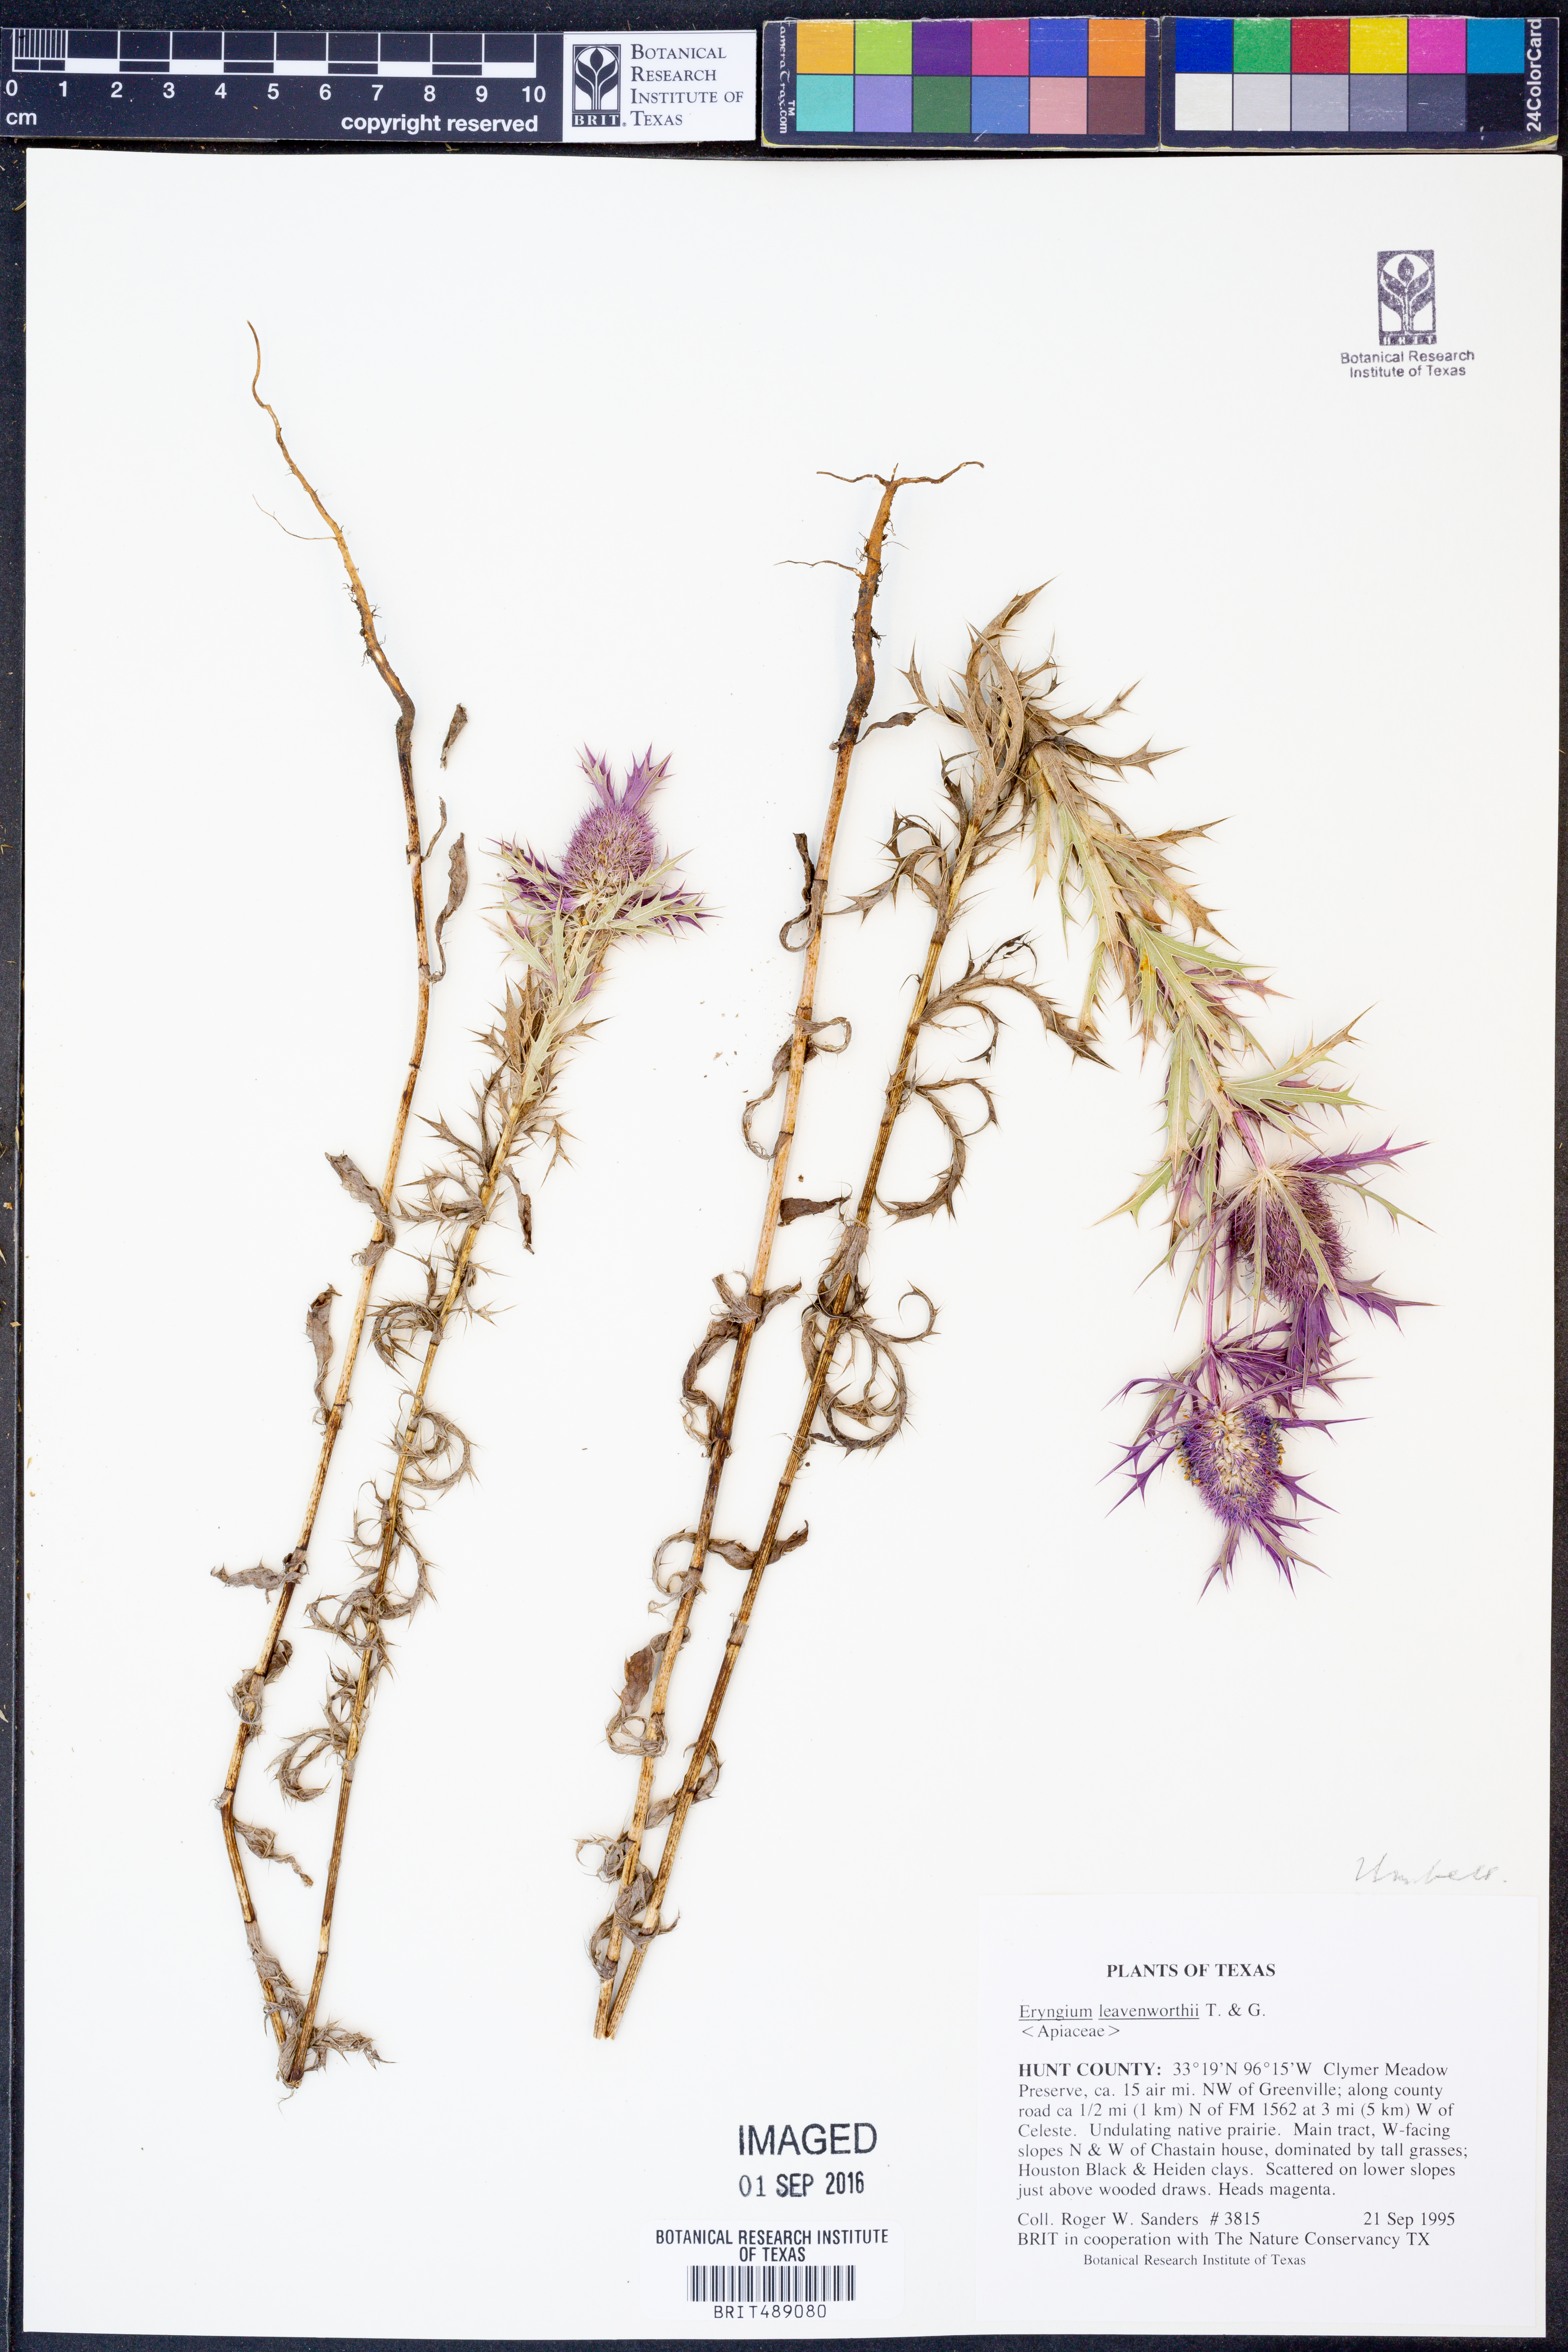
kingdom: Plantae
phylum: Tracheophyta
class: Magnoliopsida
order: Apiales
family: Apiaceae
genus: Eryngium
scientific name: Eryngium leavenworthii
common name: Leavenworth's eryngo
